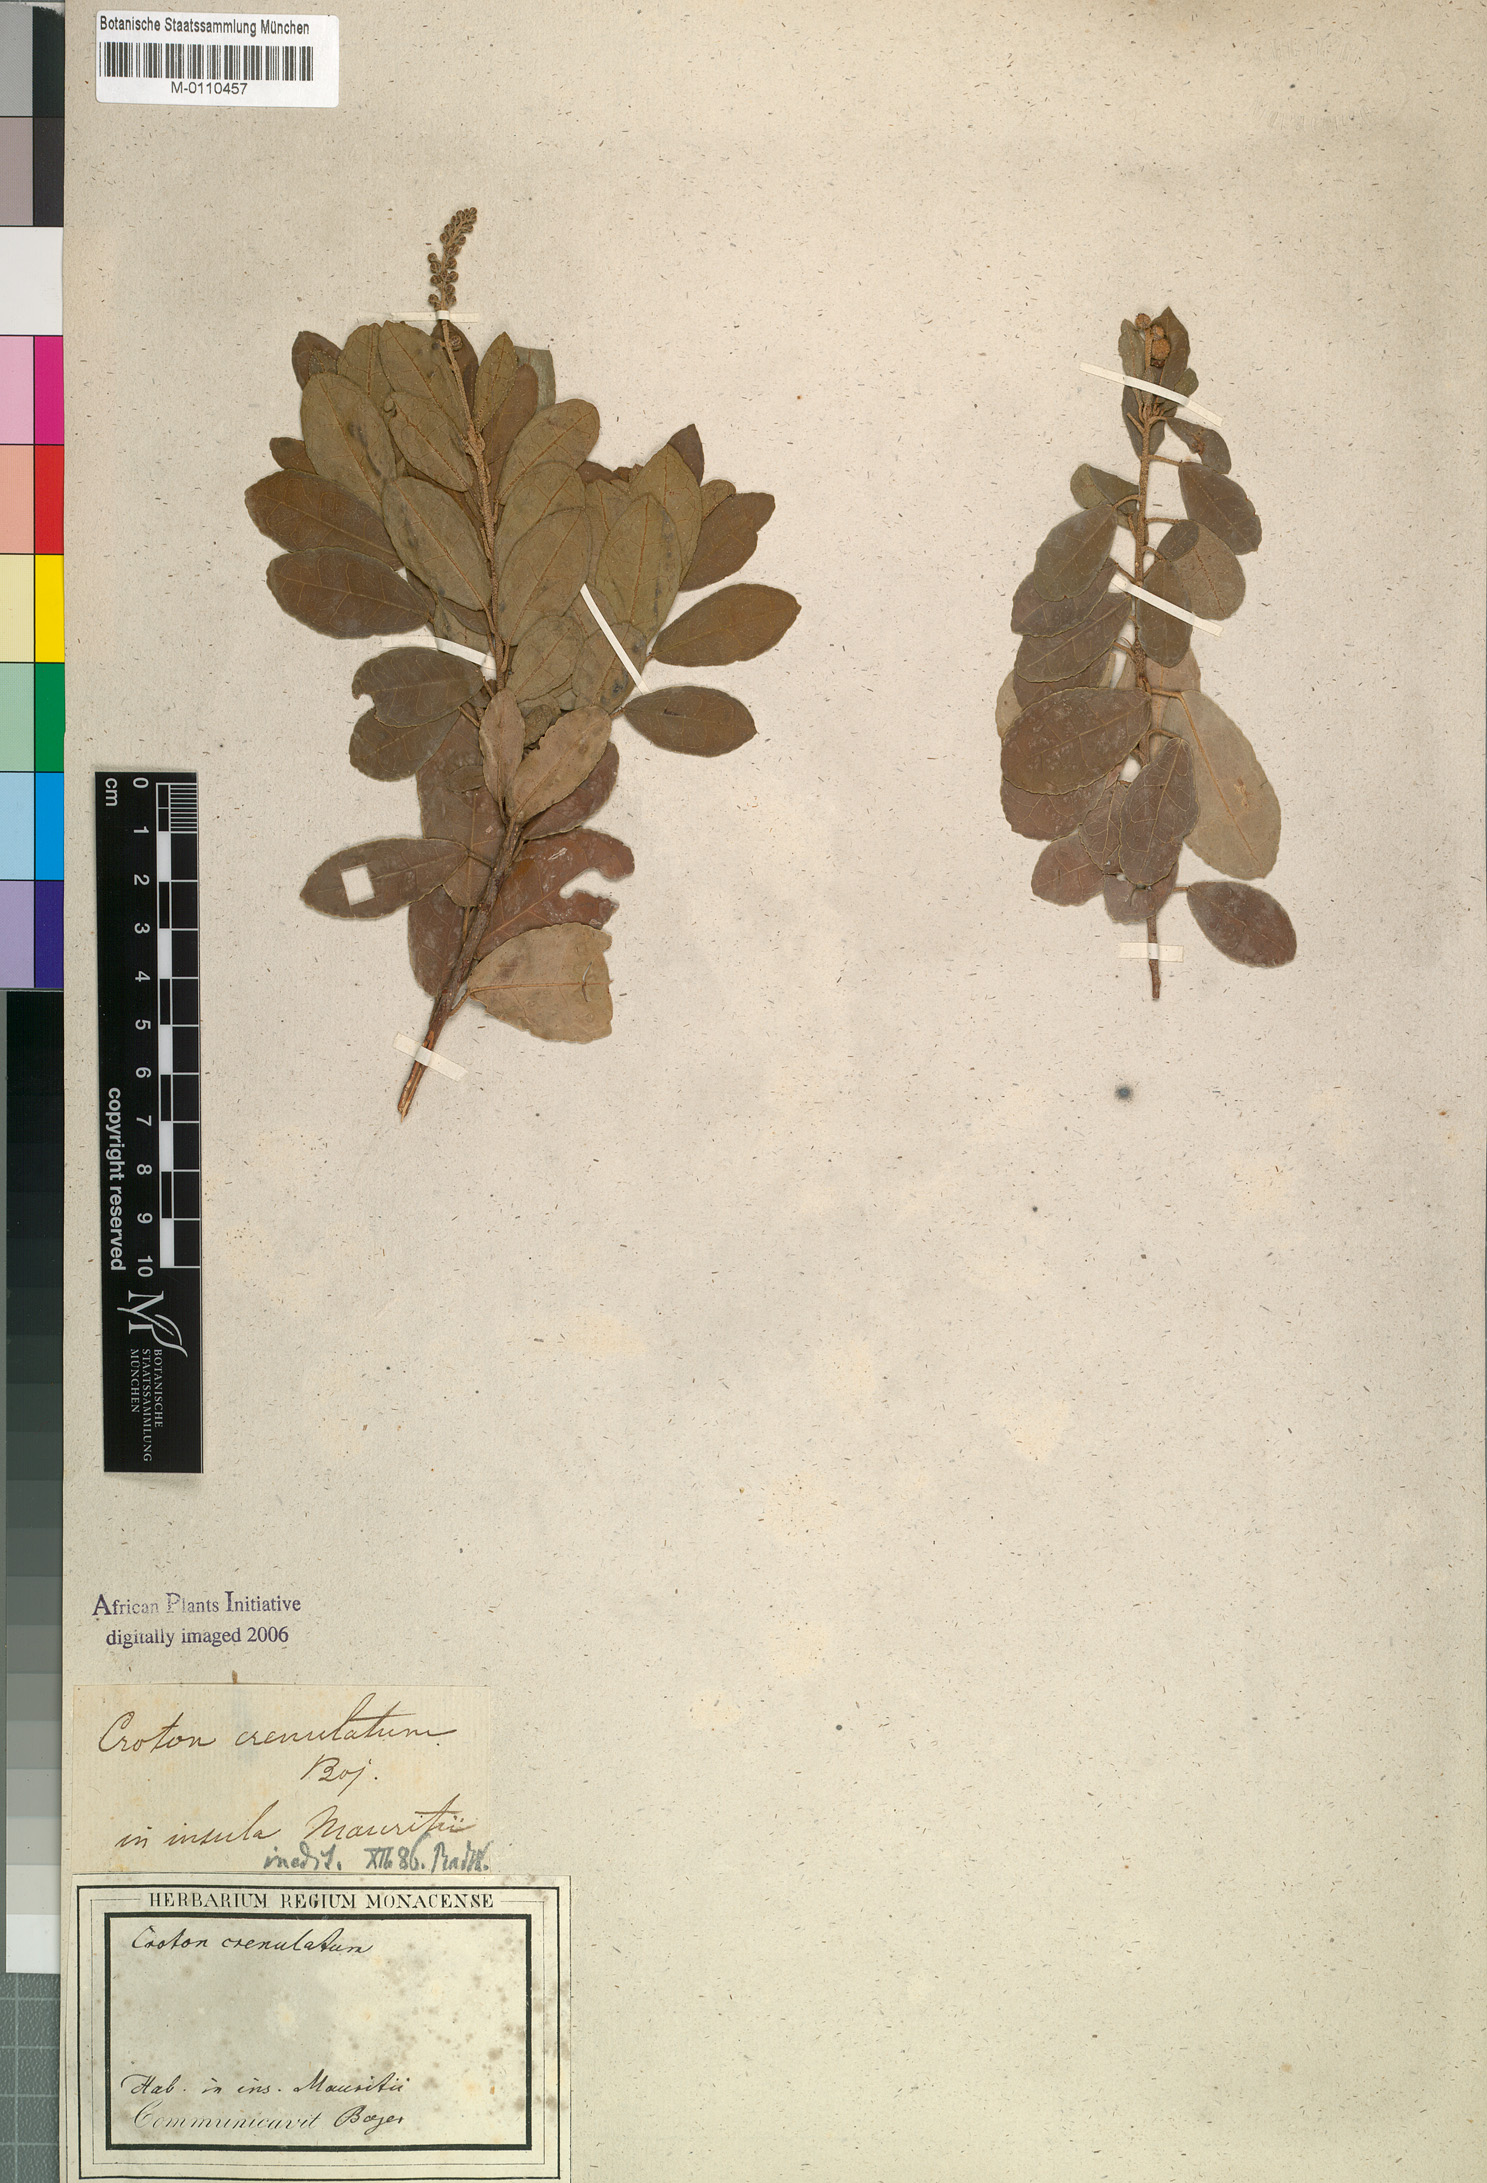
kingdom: Plantae
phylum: Tracheophyta
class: Magnoliopsida
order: Malpighiales
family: Euphorbiaceae
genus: Croton
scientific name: Croton grangerioides
